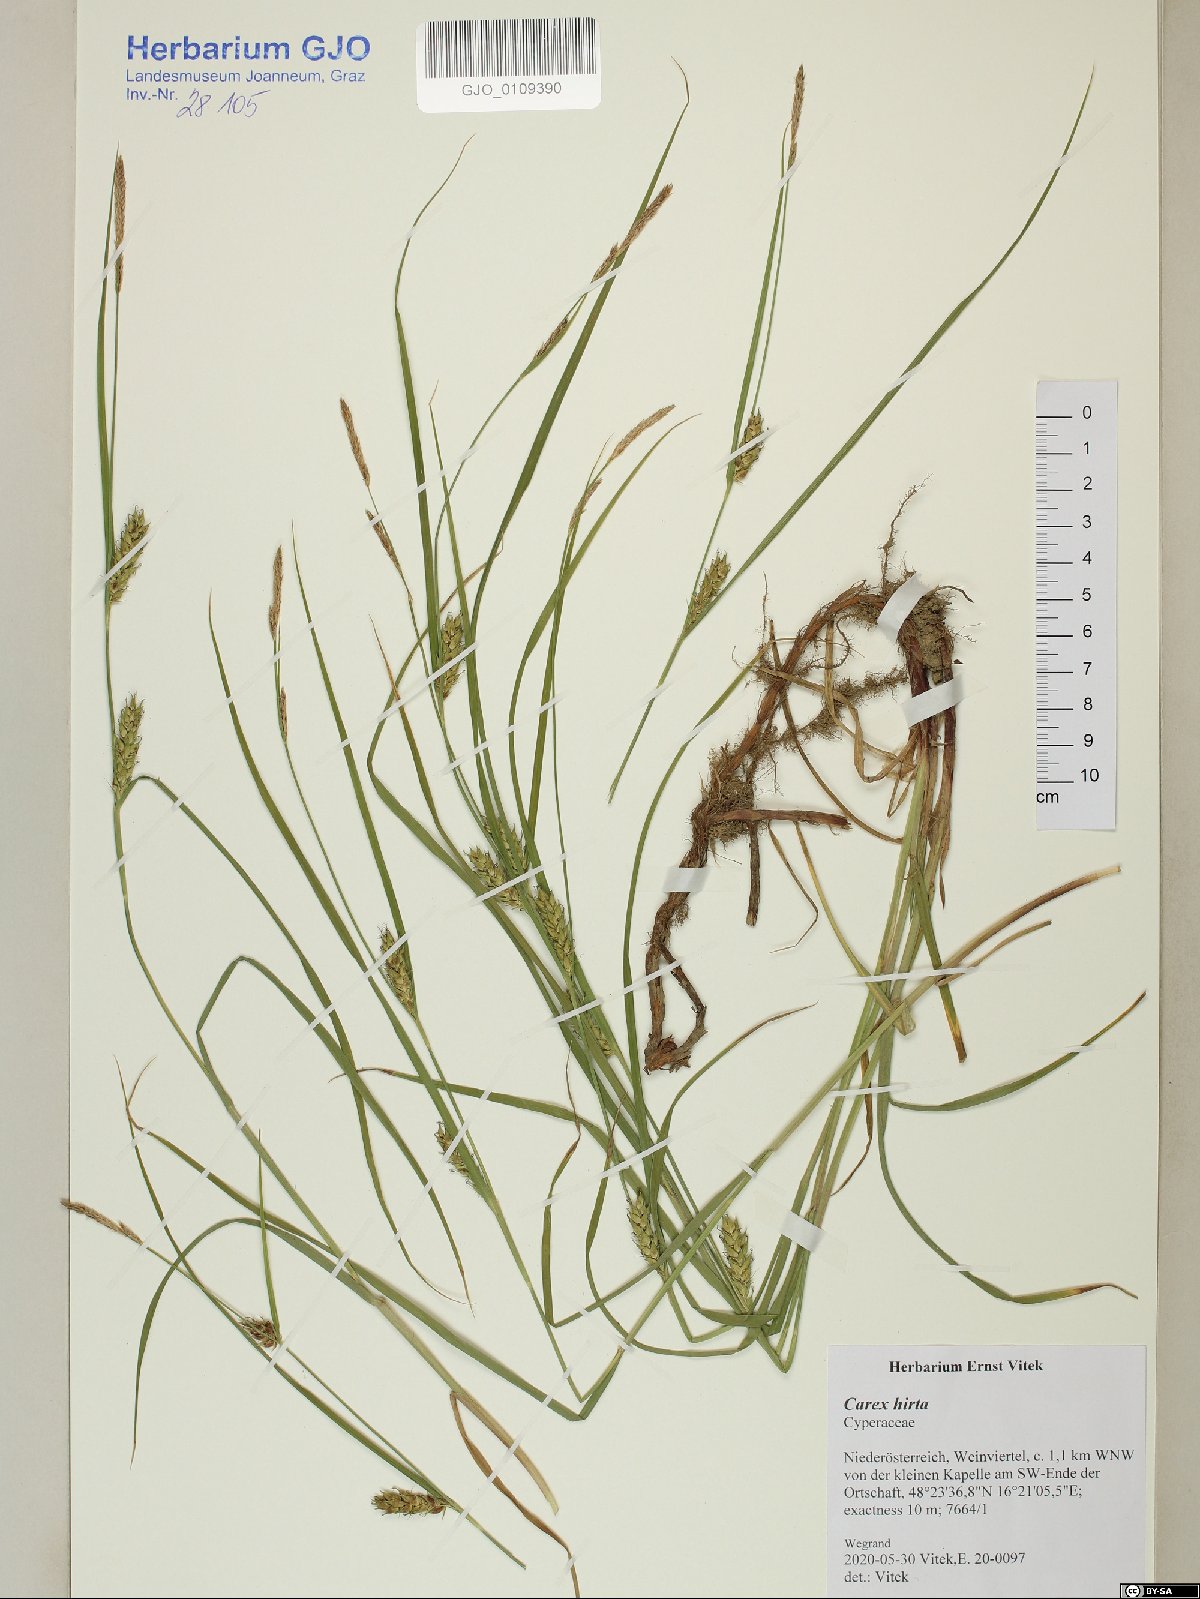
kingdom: Plantae
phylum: Tracheophyta
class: Liliopsida
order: Poales
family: Cyperaceae
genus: Carex
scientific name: Carex hirta
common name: Hairy sedge
